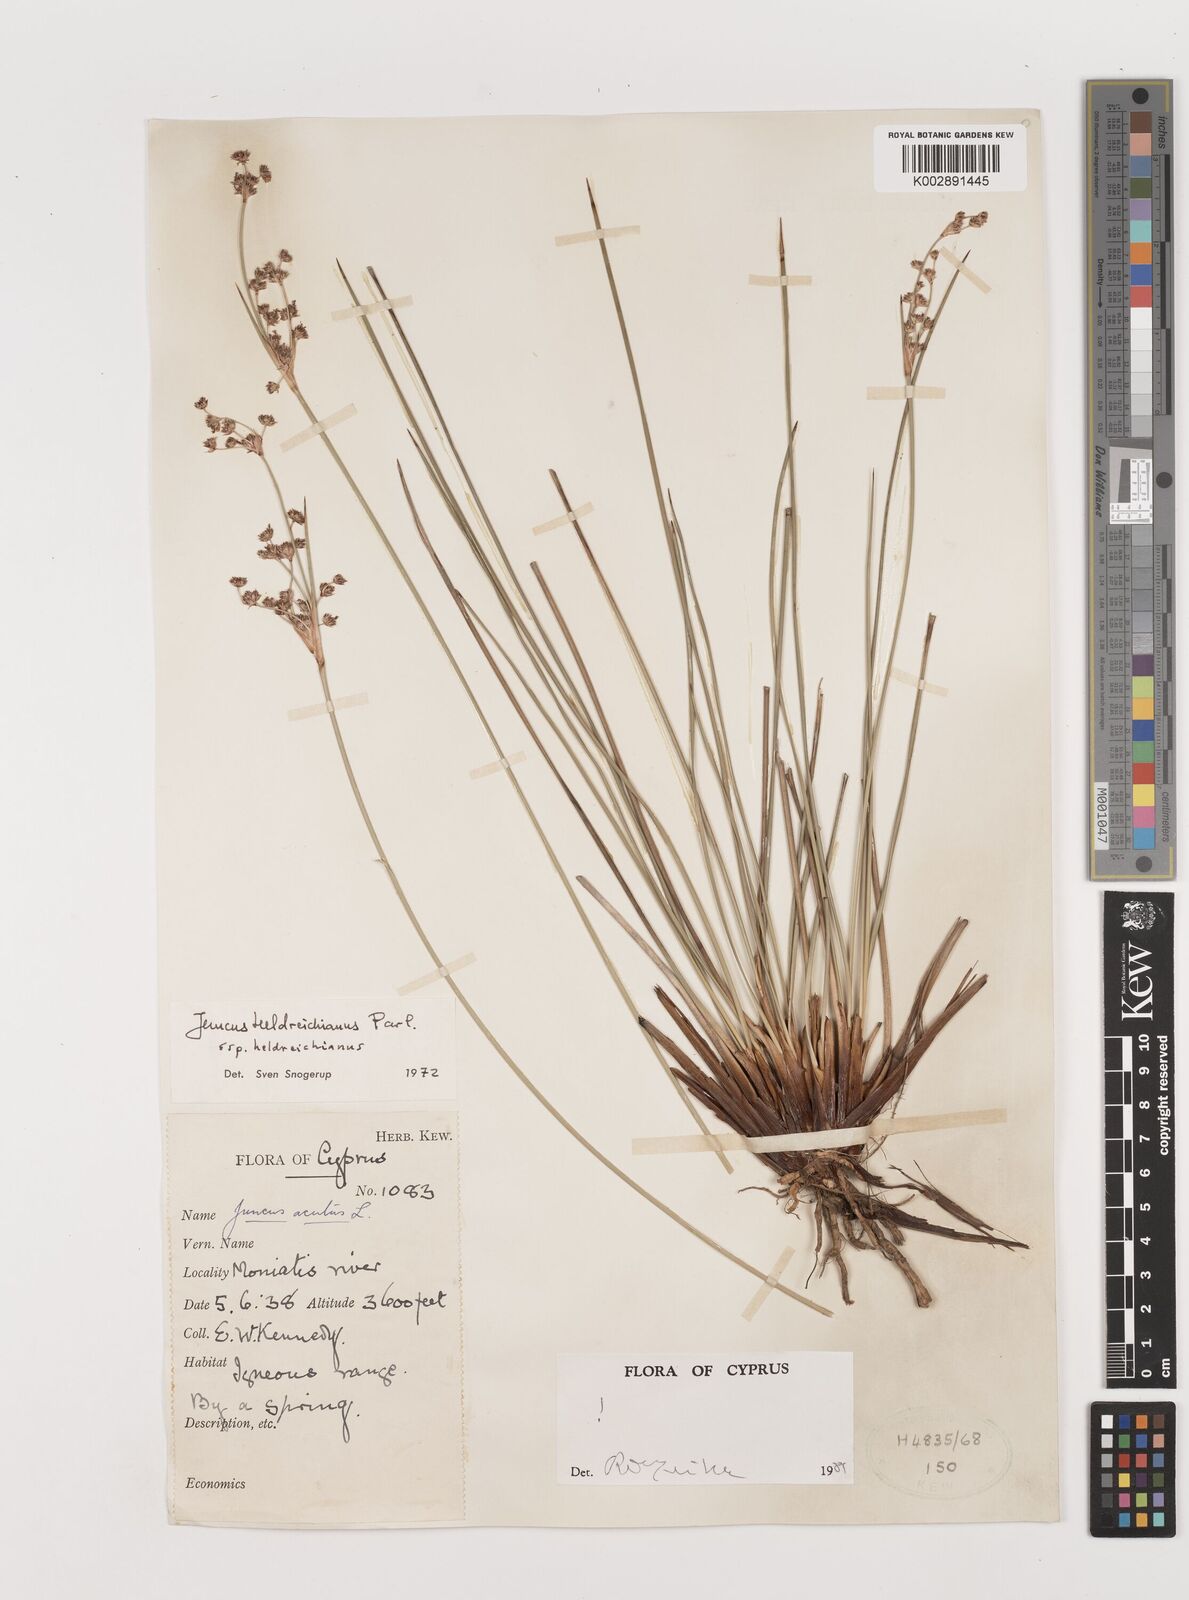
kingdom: Plantae
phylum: Tracheophyta
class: Liliopsida
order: Poales
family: Juncaceae
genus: Juncus
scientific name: Juncus heldreichianus
